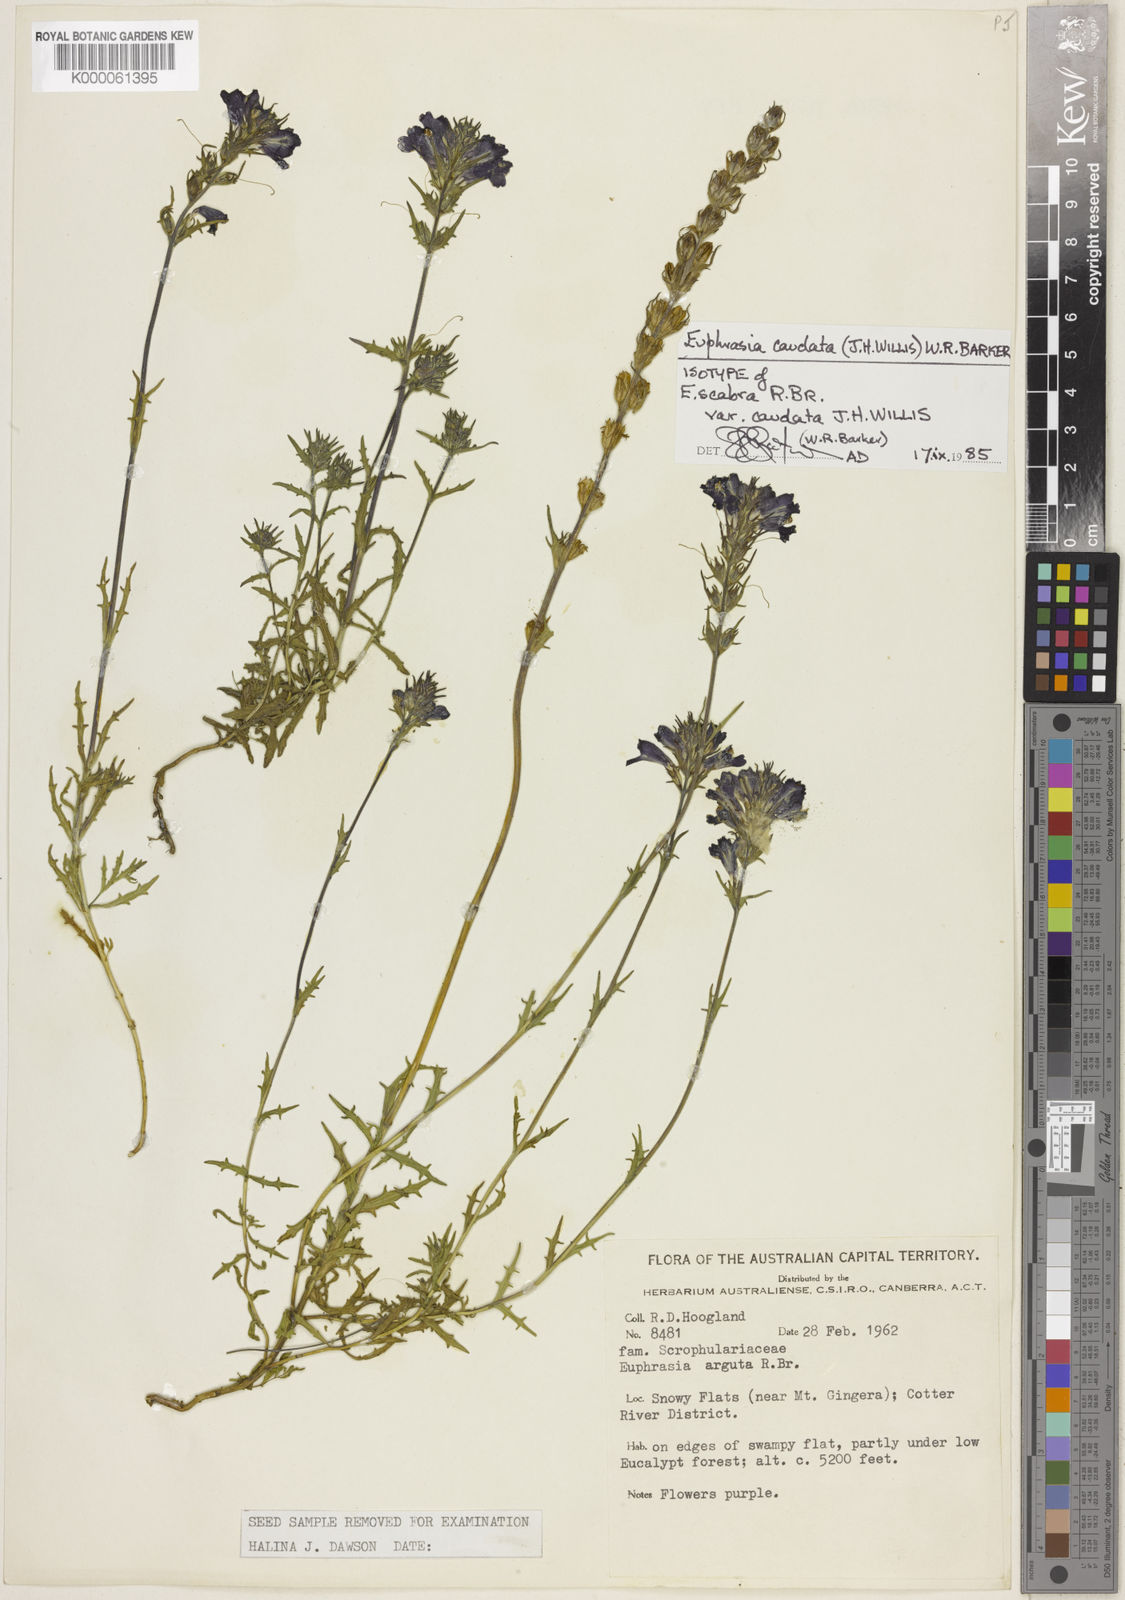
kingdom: Plantae
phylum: Tracheophyta
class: Magnoliopsida
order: Lamiales
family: Orobanchaceae
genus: Euphrasia
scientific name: Euphrasia caudata
